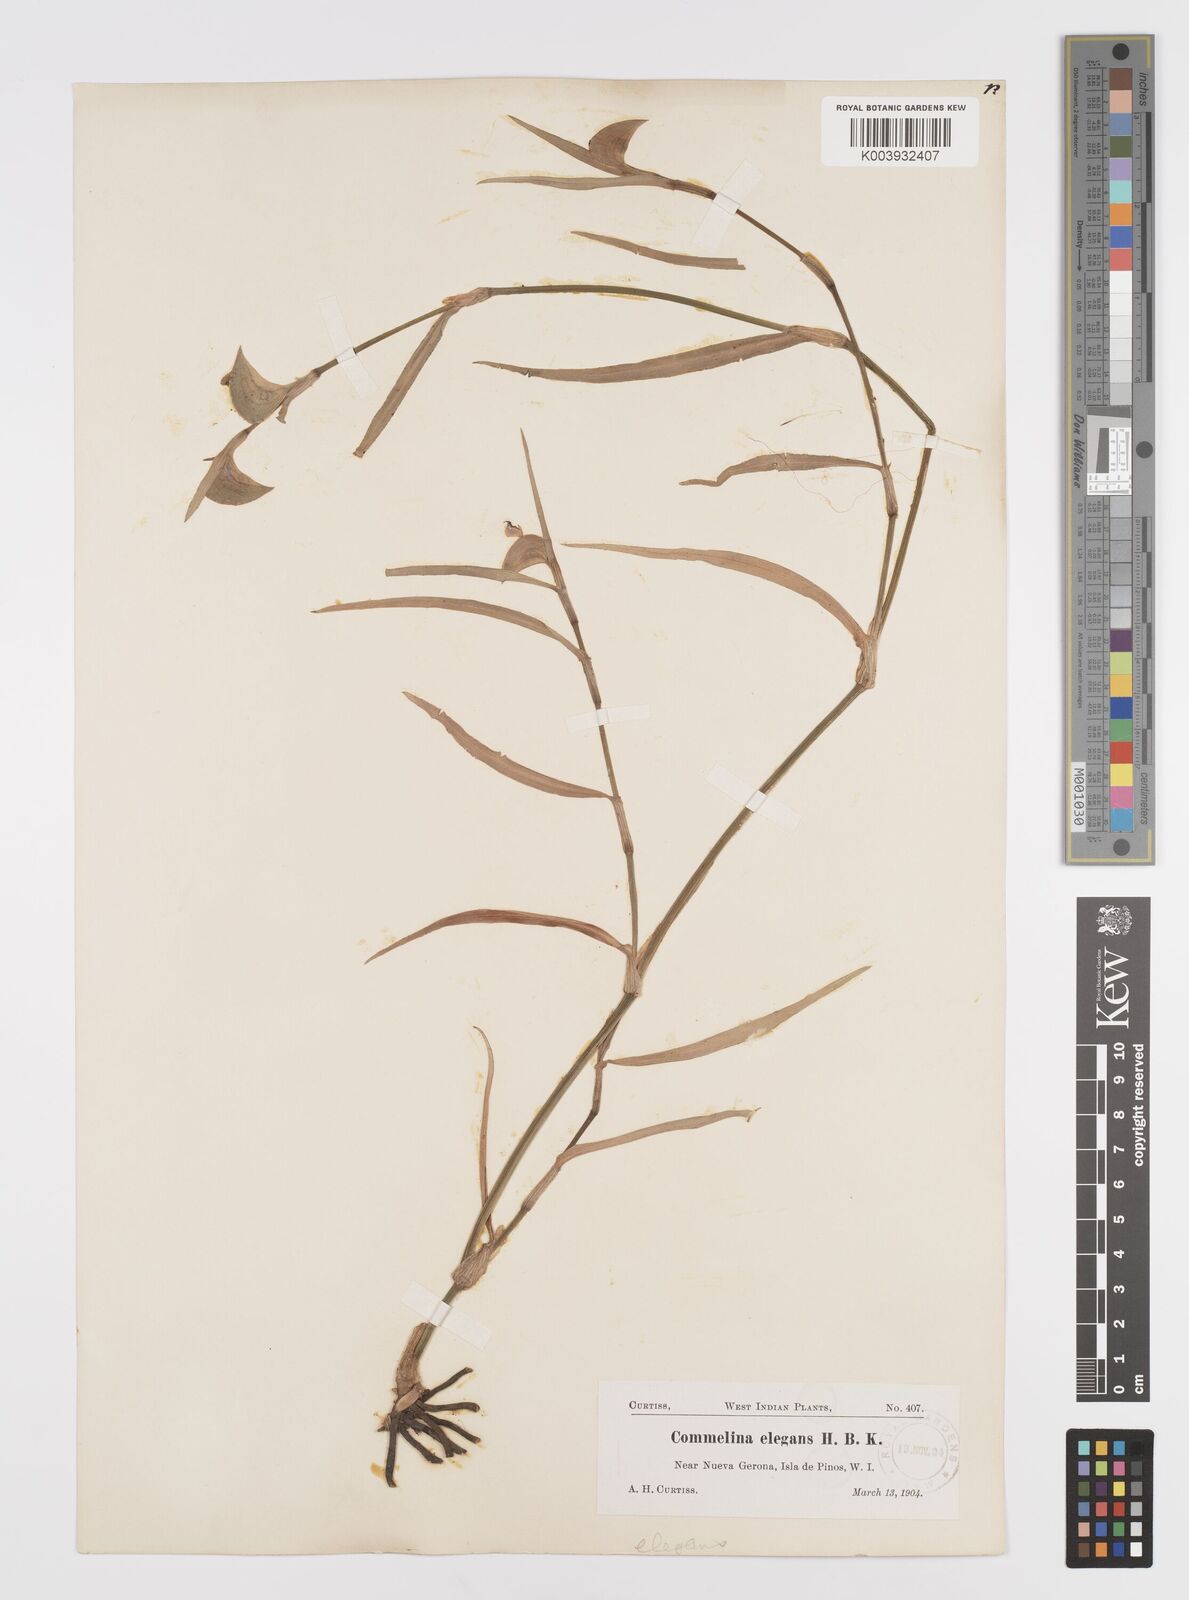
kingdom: Plantae
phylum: Tracheophyta
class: Liliopsida
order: Commelinales
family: Commelinaceae
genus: Commelina
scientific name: Commelina erecta
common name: Blousel blommetjie
